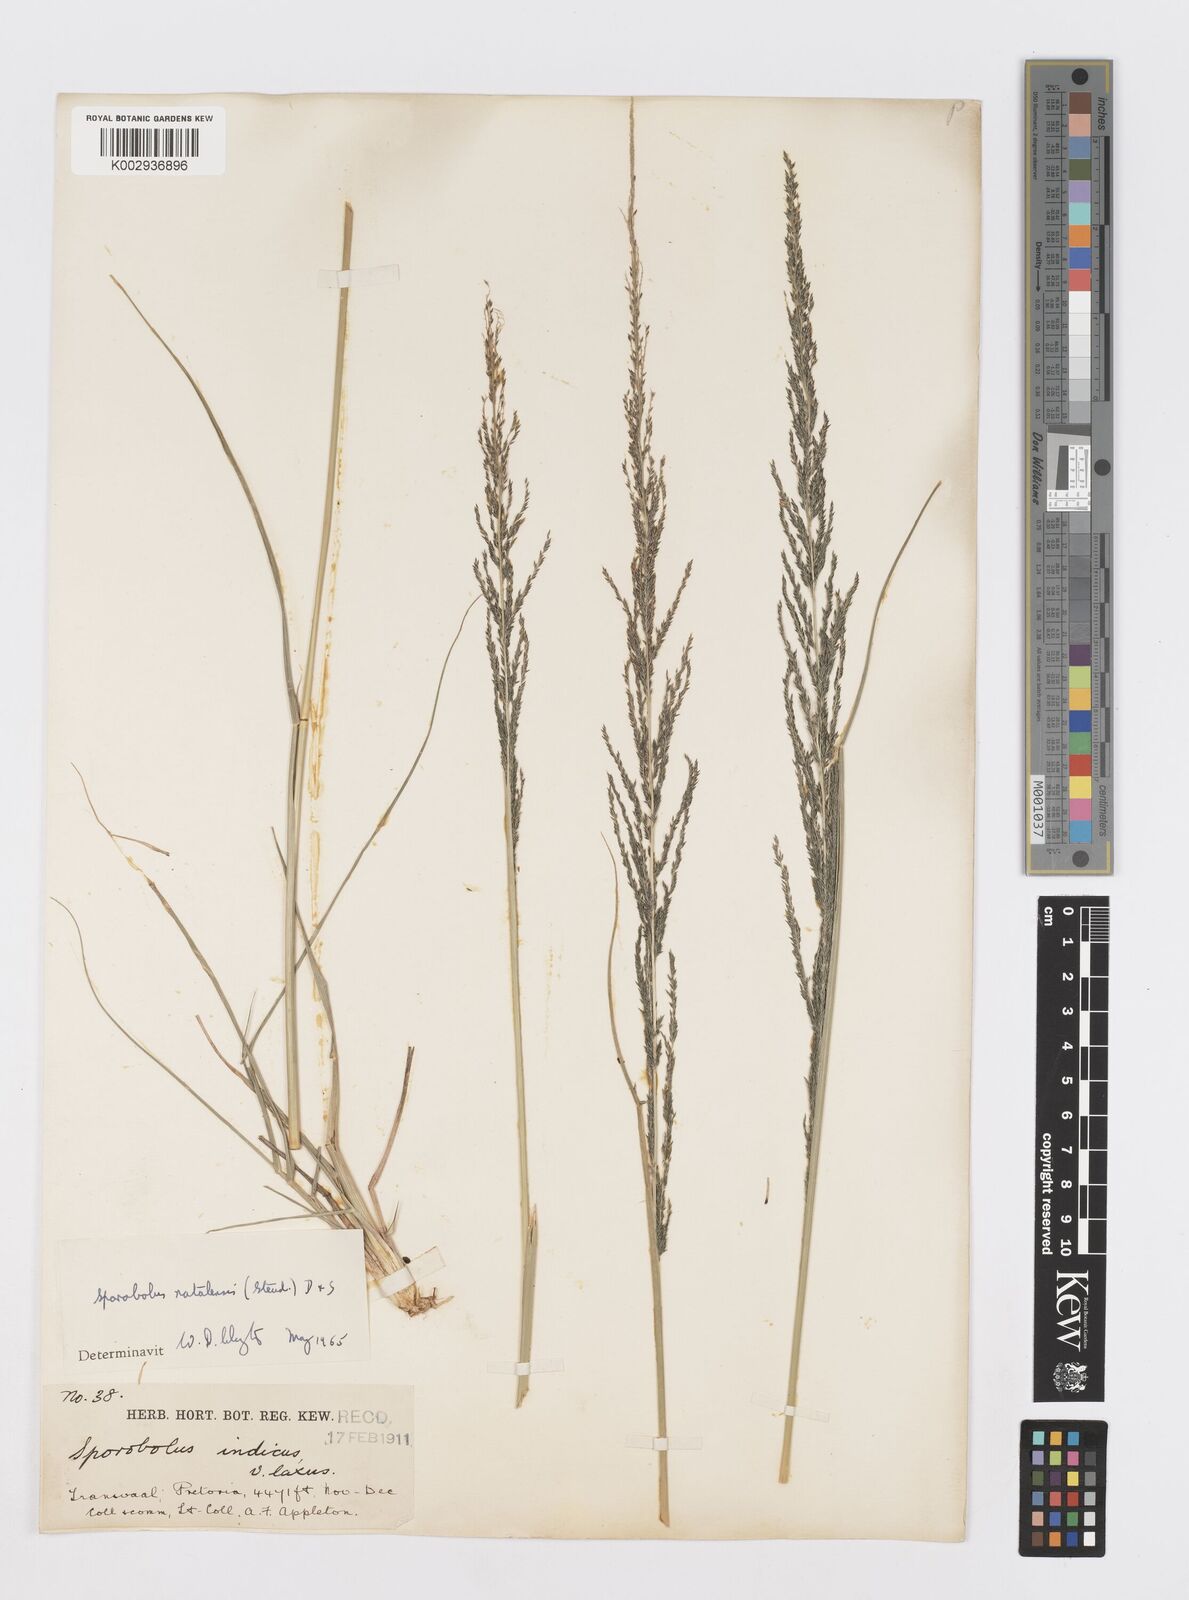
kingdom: Plantae
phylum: Tracheophyta
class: Liliopsida
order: Poales
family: Poaceae
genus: Sporobolus
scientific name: Sporobolus natalensis
